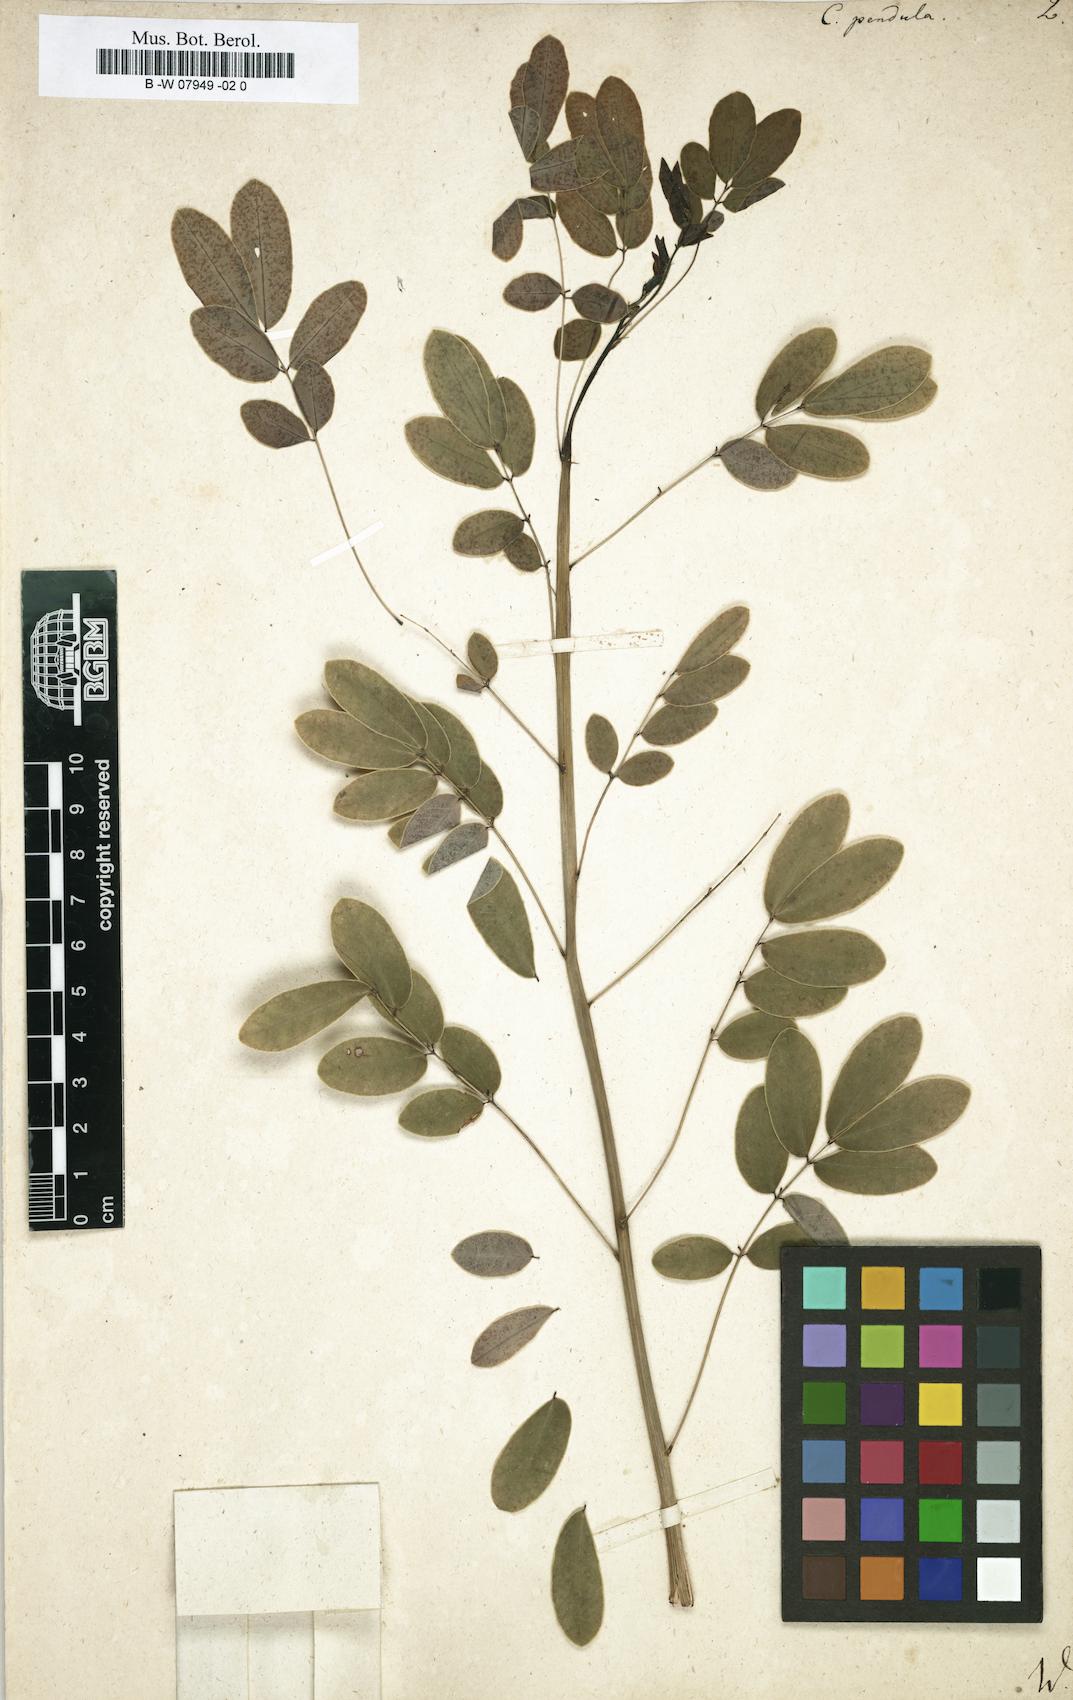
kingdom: Plantae
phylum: Tracheophyta
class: Magnoliopsida
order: Fabales
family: Fabaceae
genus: Senna
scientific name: Senna pendula
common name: Easter cassia
